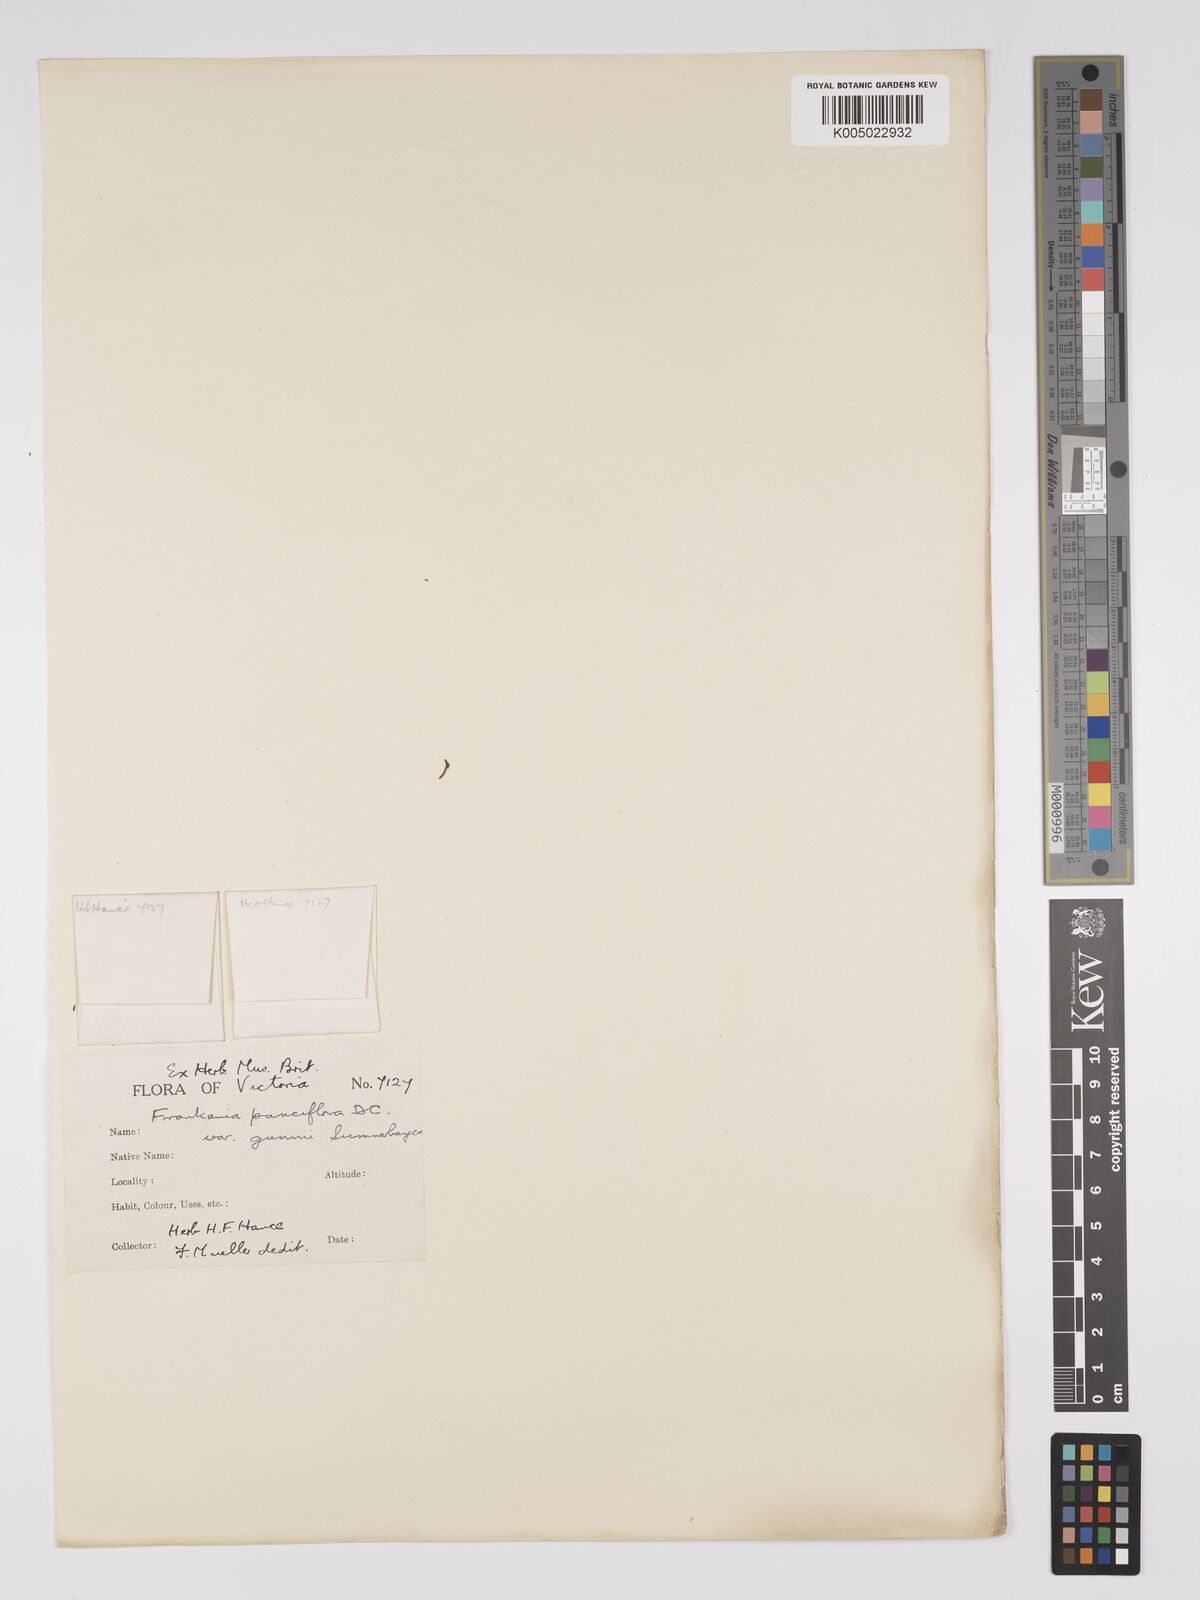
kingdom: Plantae
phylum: Tracheophyta
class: Magnoliopsida
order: Caryophyllales
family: Frankeniaceae
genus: Frankenia
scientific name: Frankenia pauciflora
